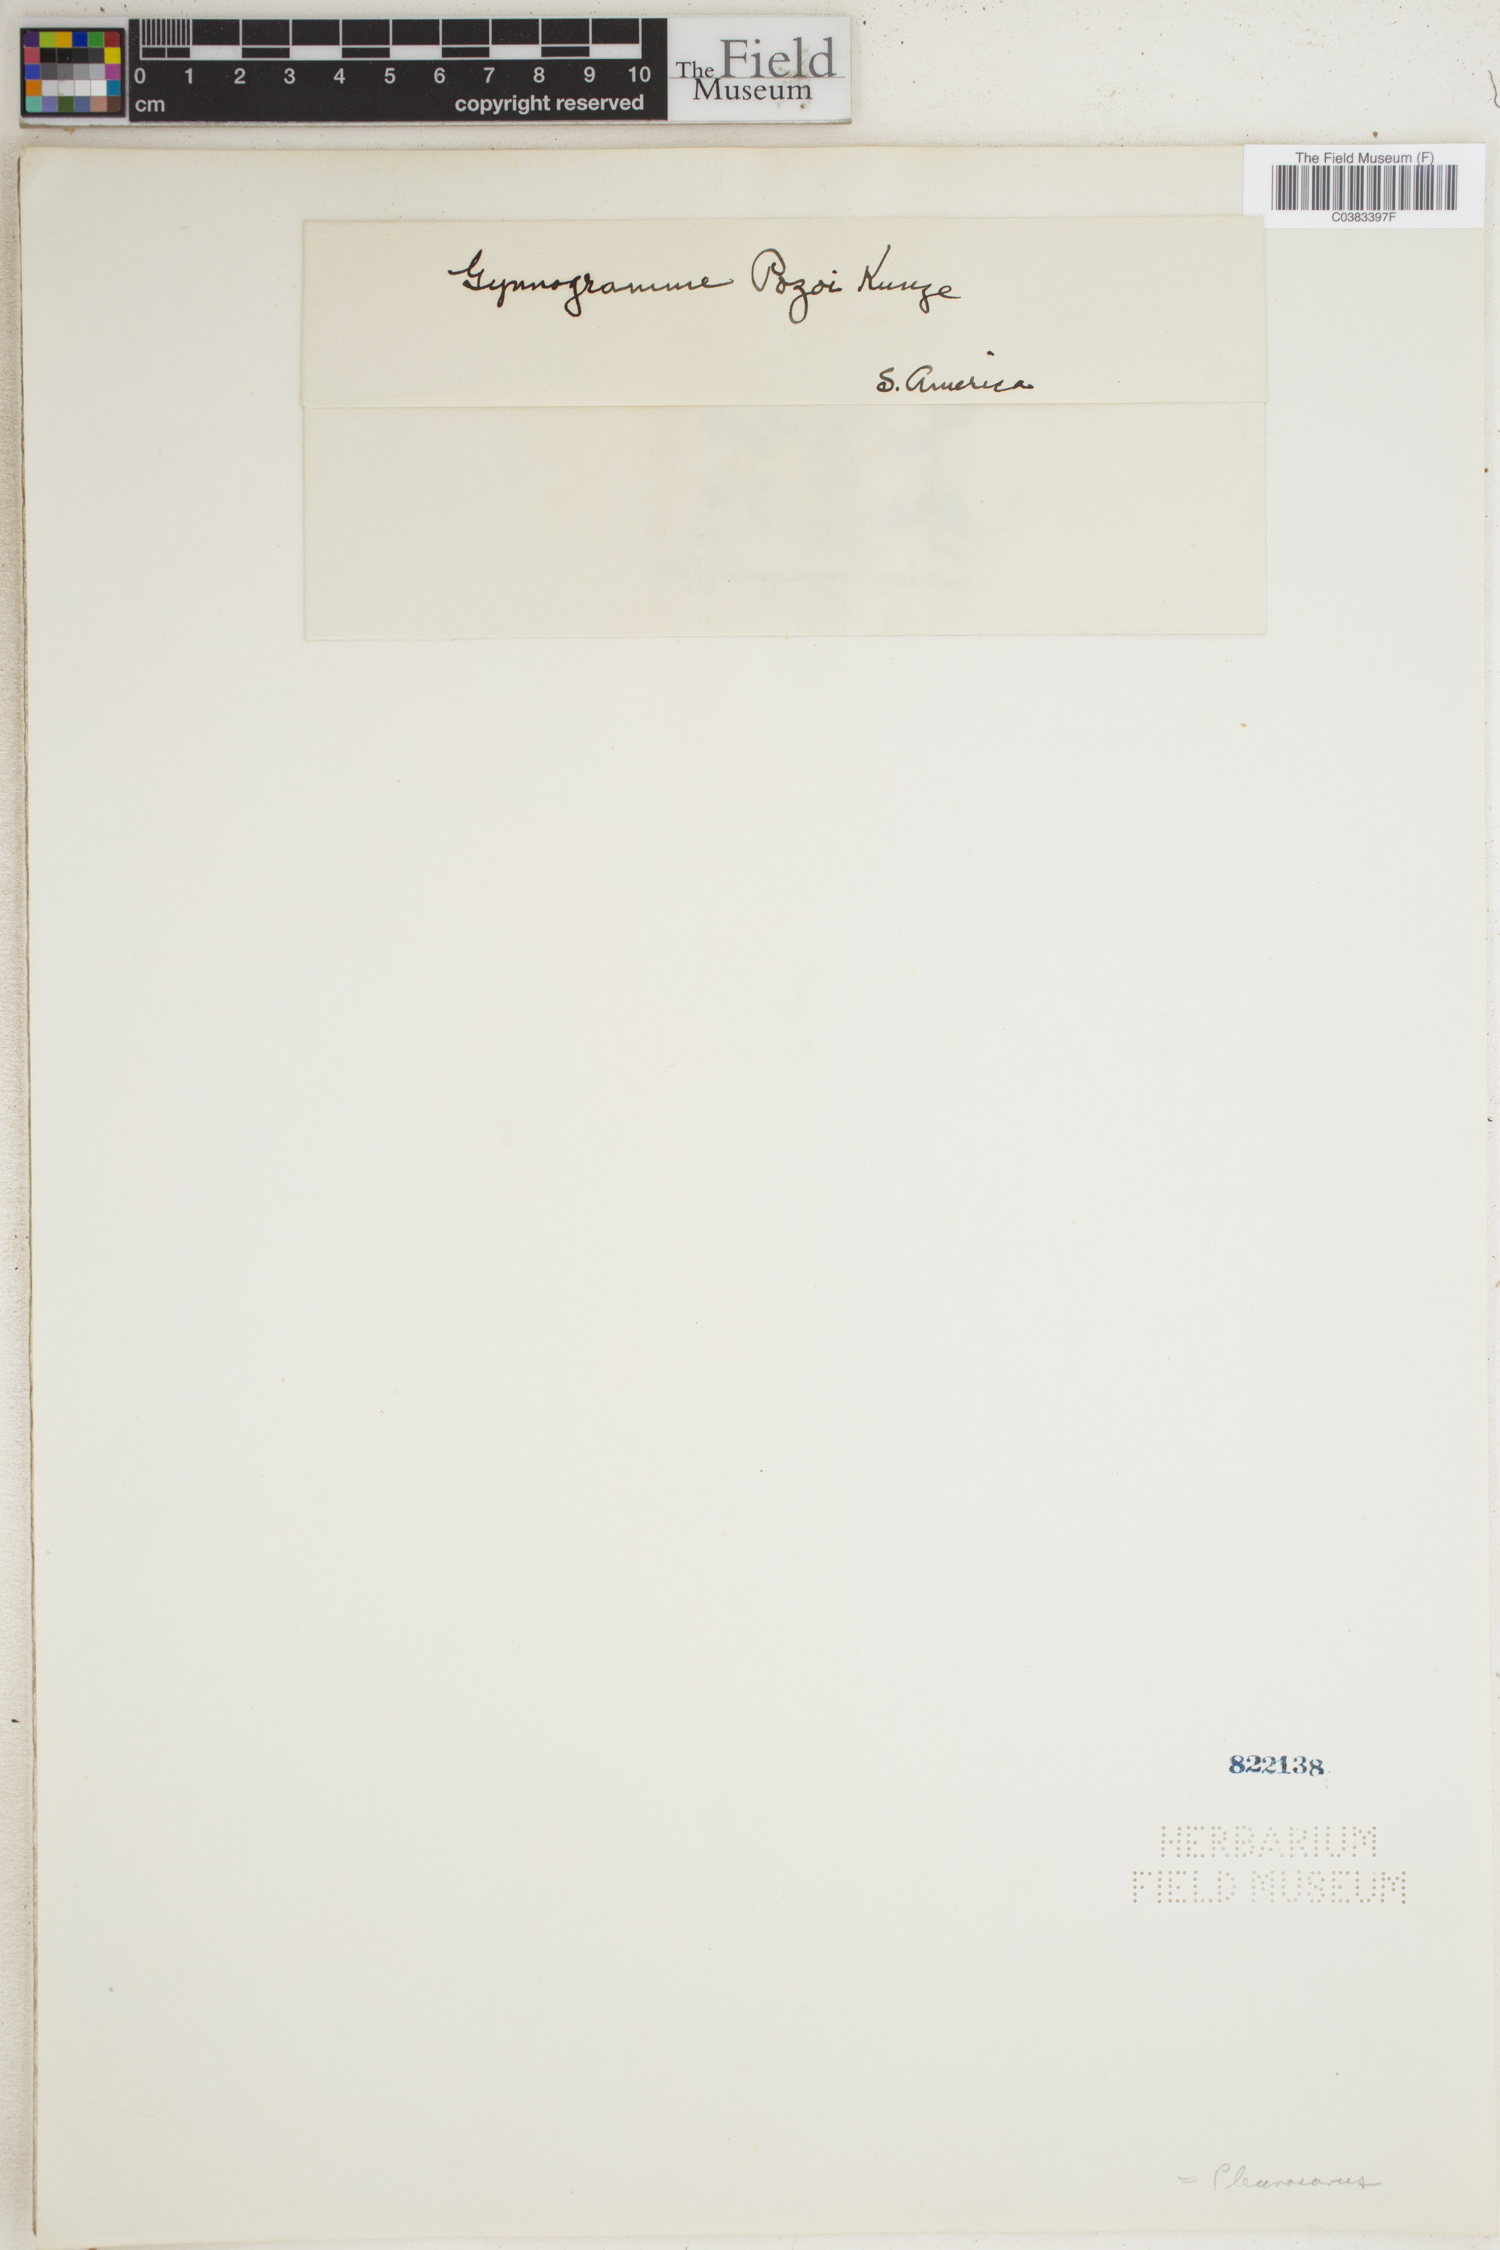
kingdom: Plantae
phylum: Tracheophyta
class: Polypodiopsida
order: Polypodiales
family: Thelypteridaceae
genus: Leptogramma
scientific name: Leptogramma pozoi
